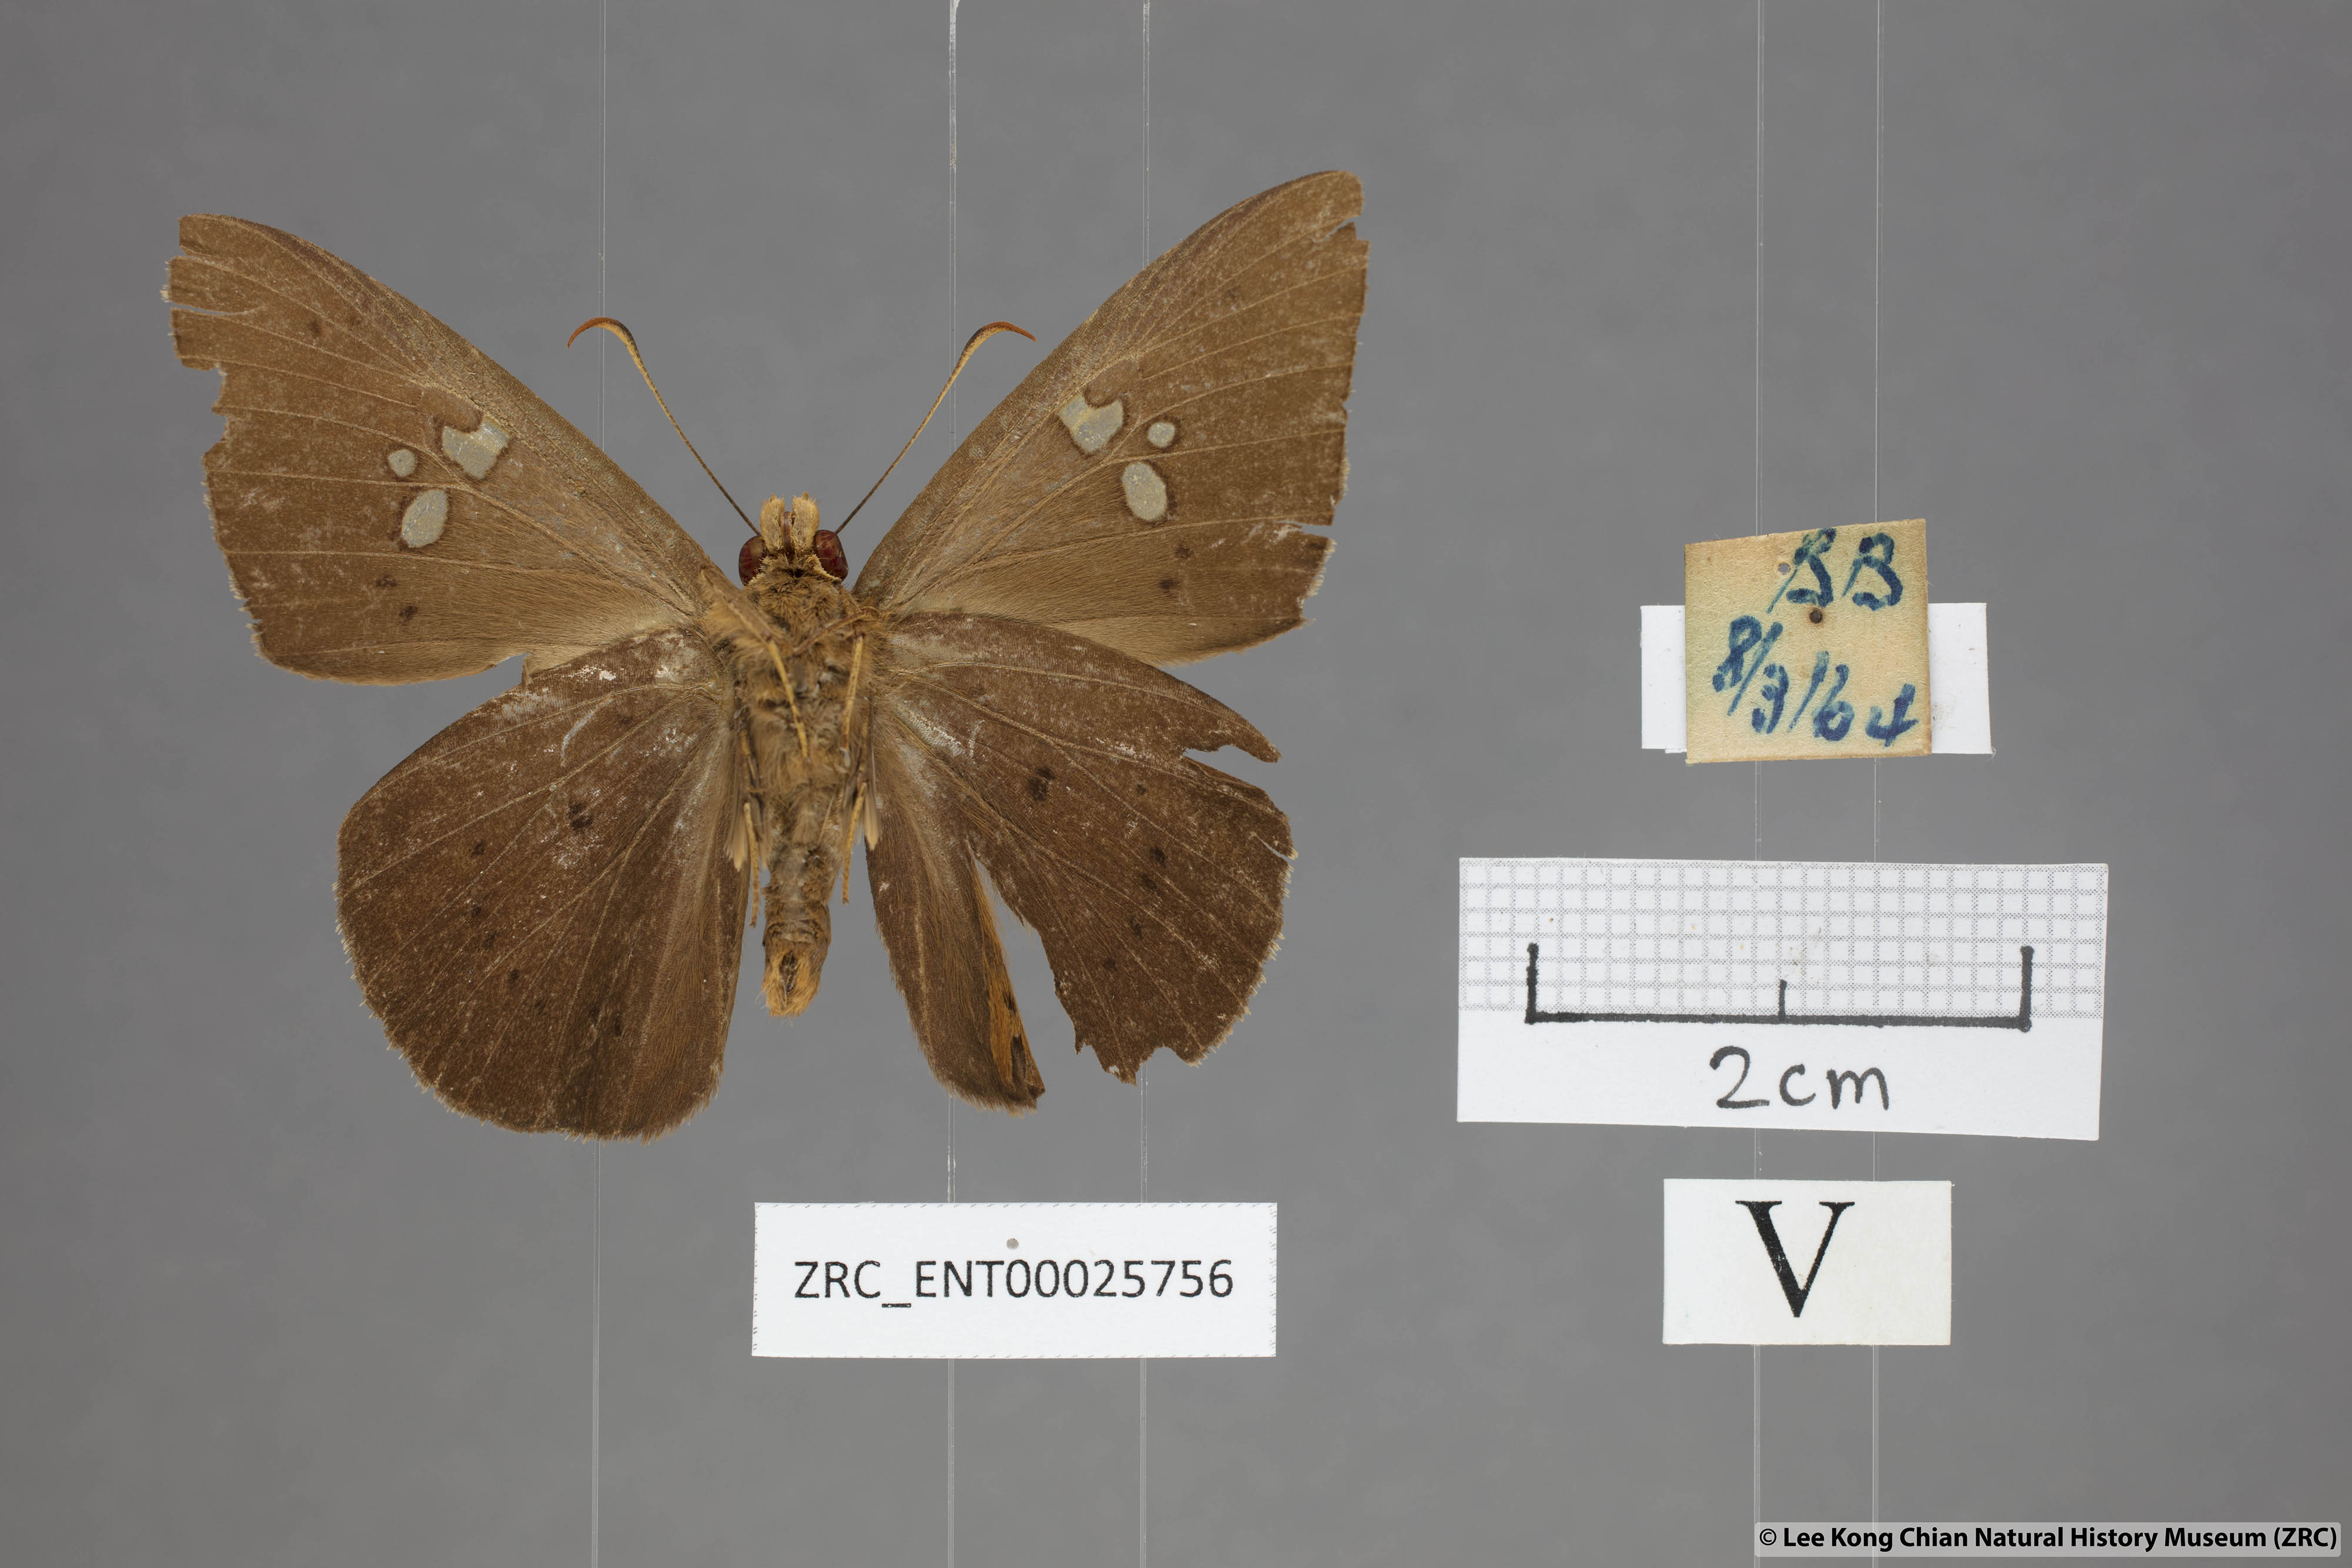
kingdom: Animalia
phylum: Arthropoda
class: Insecta
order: Lepidoptera
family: Hesperiidae
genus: Capila
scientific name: Capila phanaeus
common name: Fulvous dawnfly
